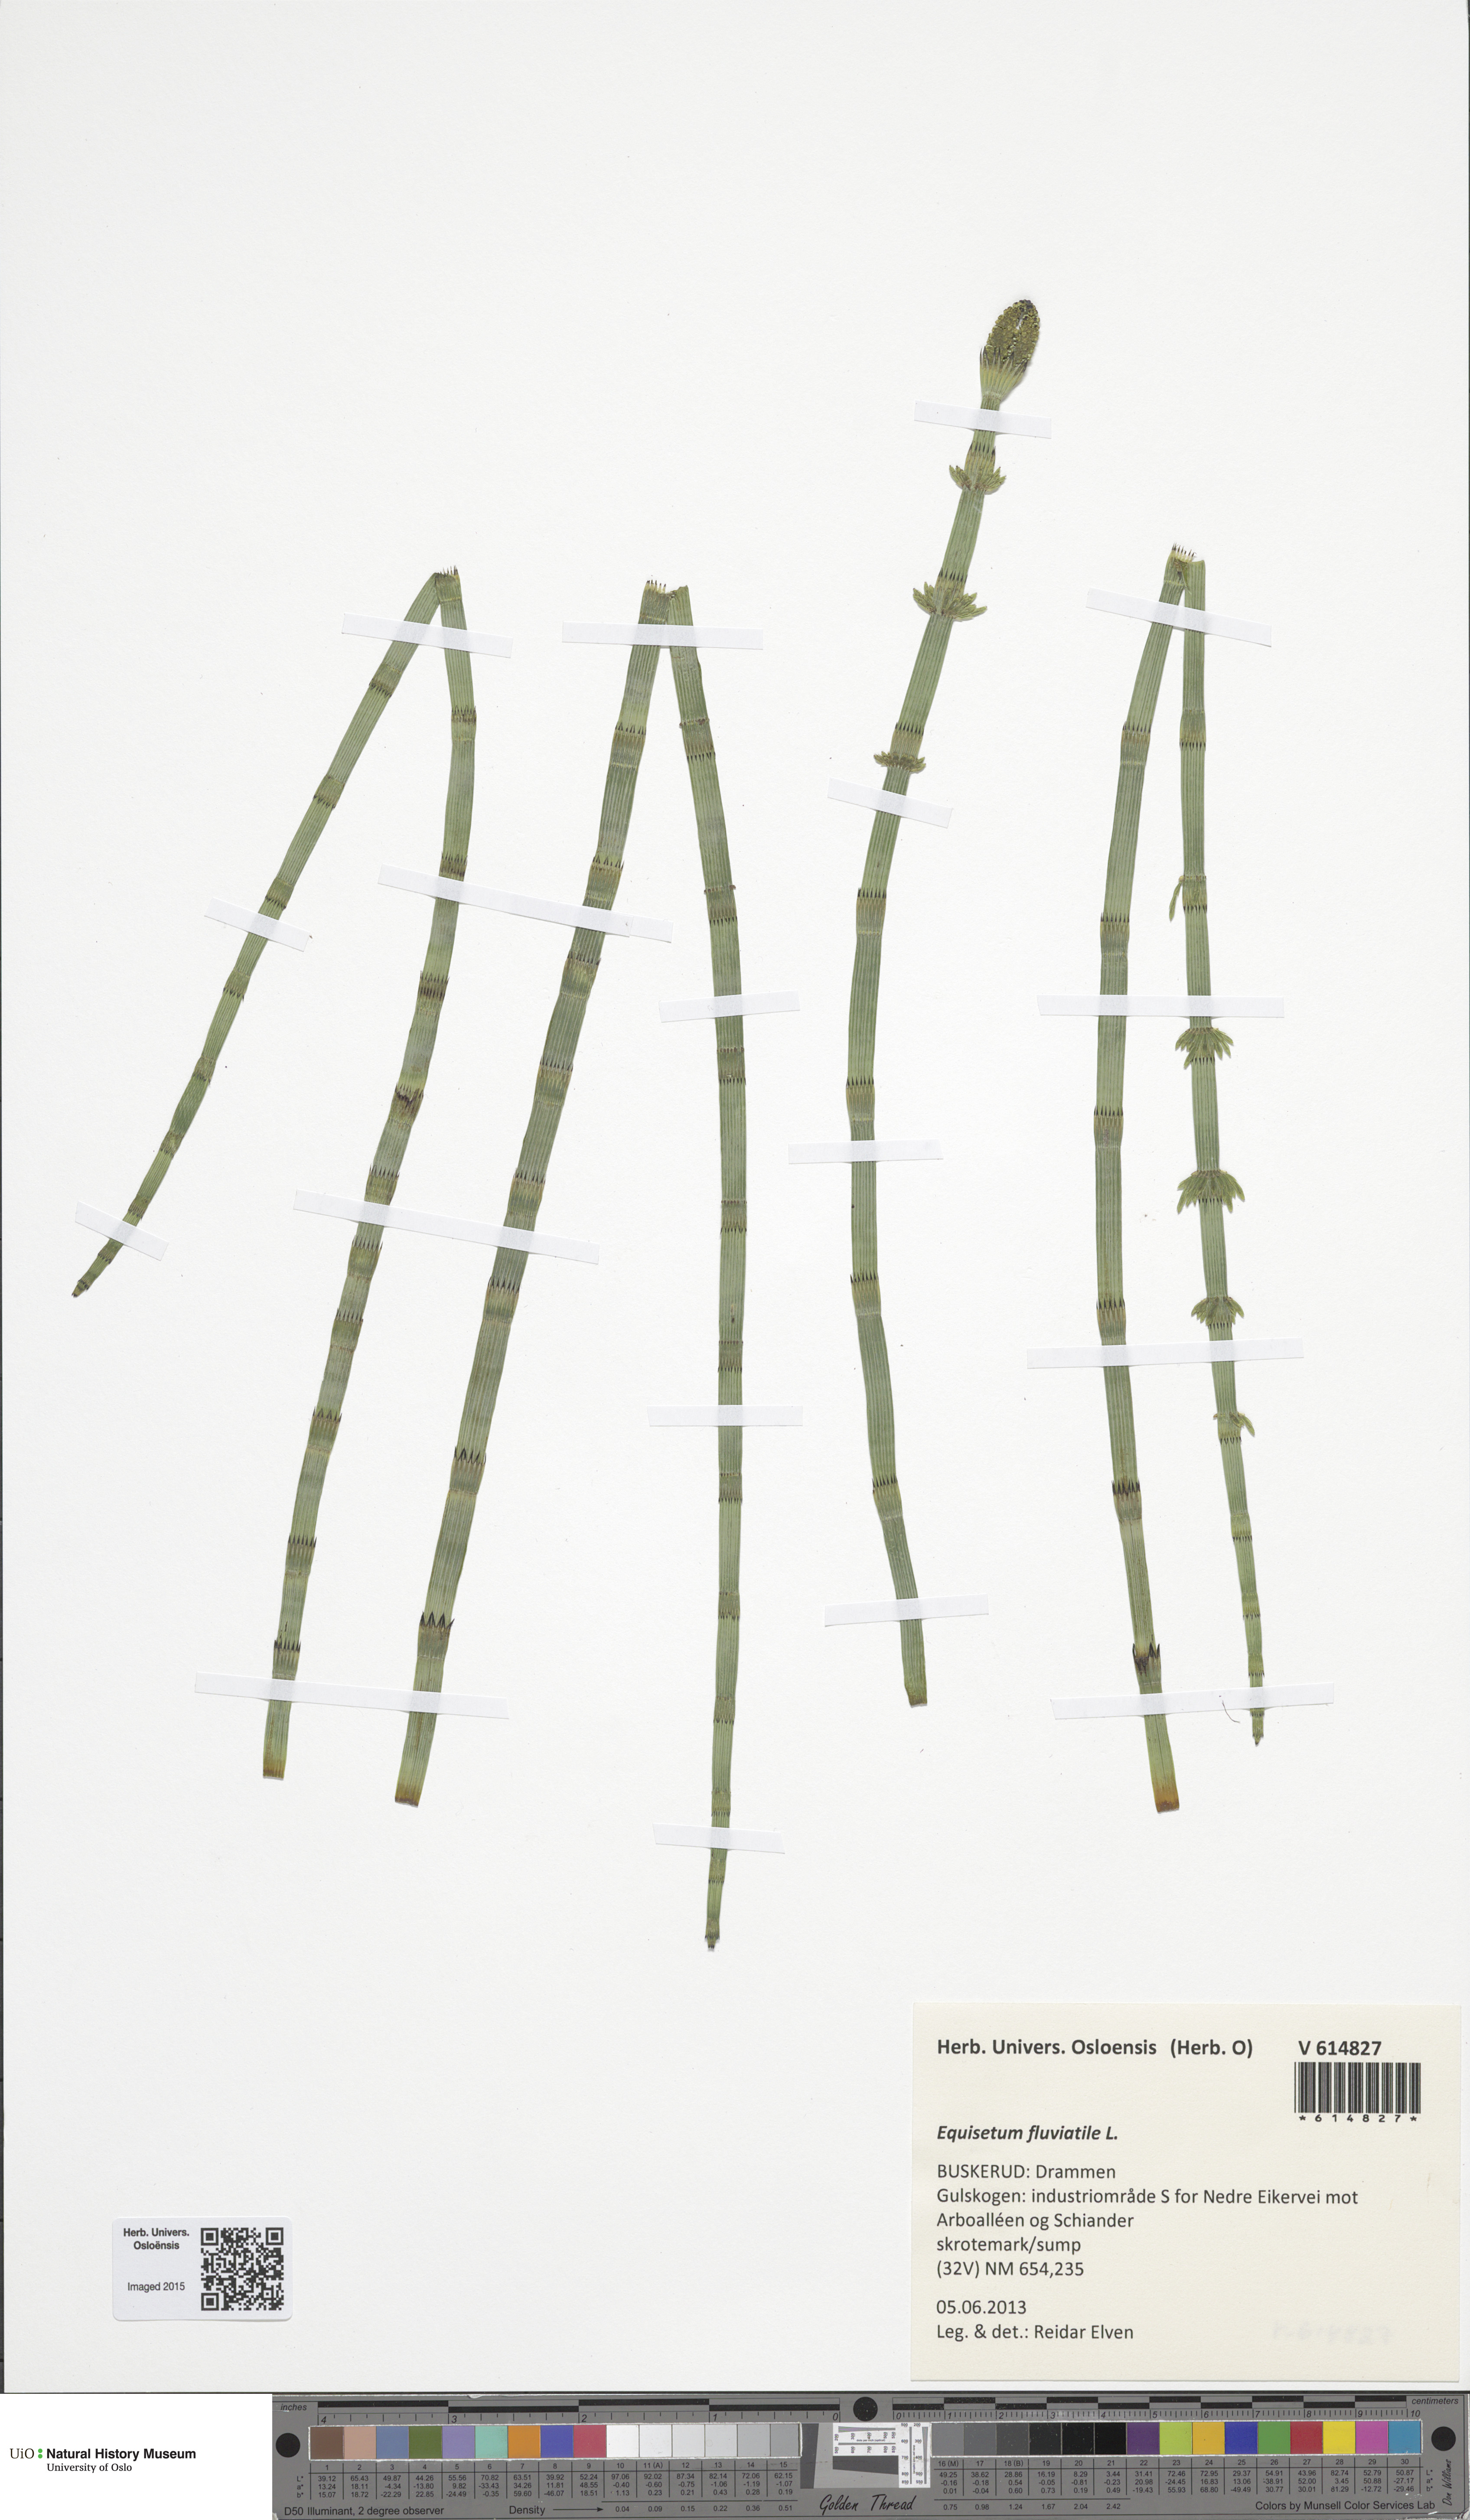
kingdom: Plantae
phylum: Tracheophyta
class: Polypodiopsida
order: Equisetales
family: Equisetaceae
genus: Equisetum
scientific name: Equisetum fluviatile
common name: Water horsetail
